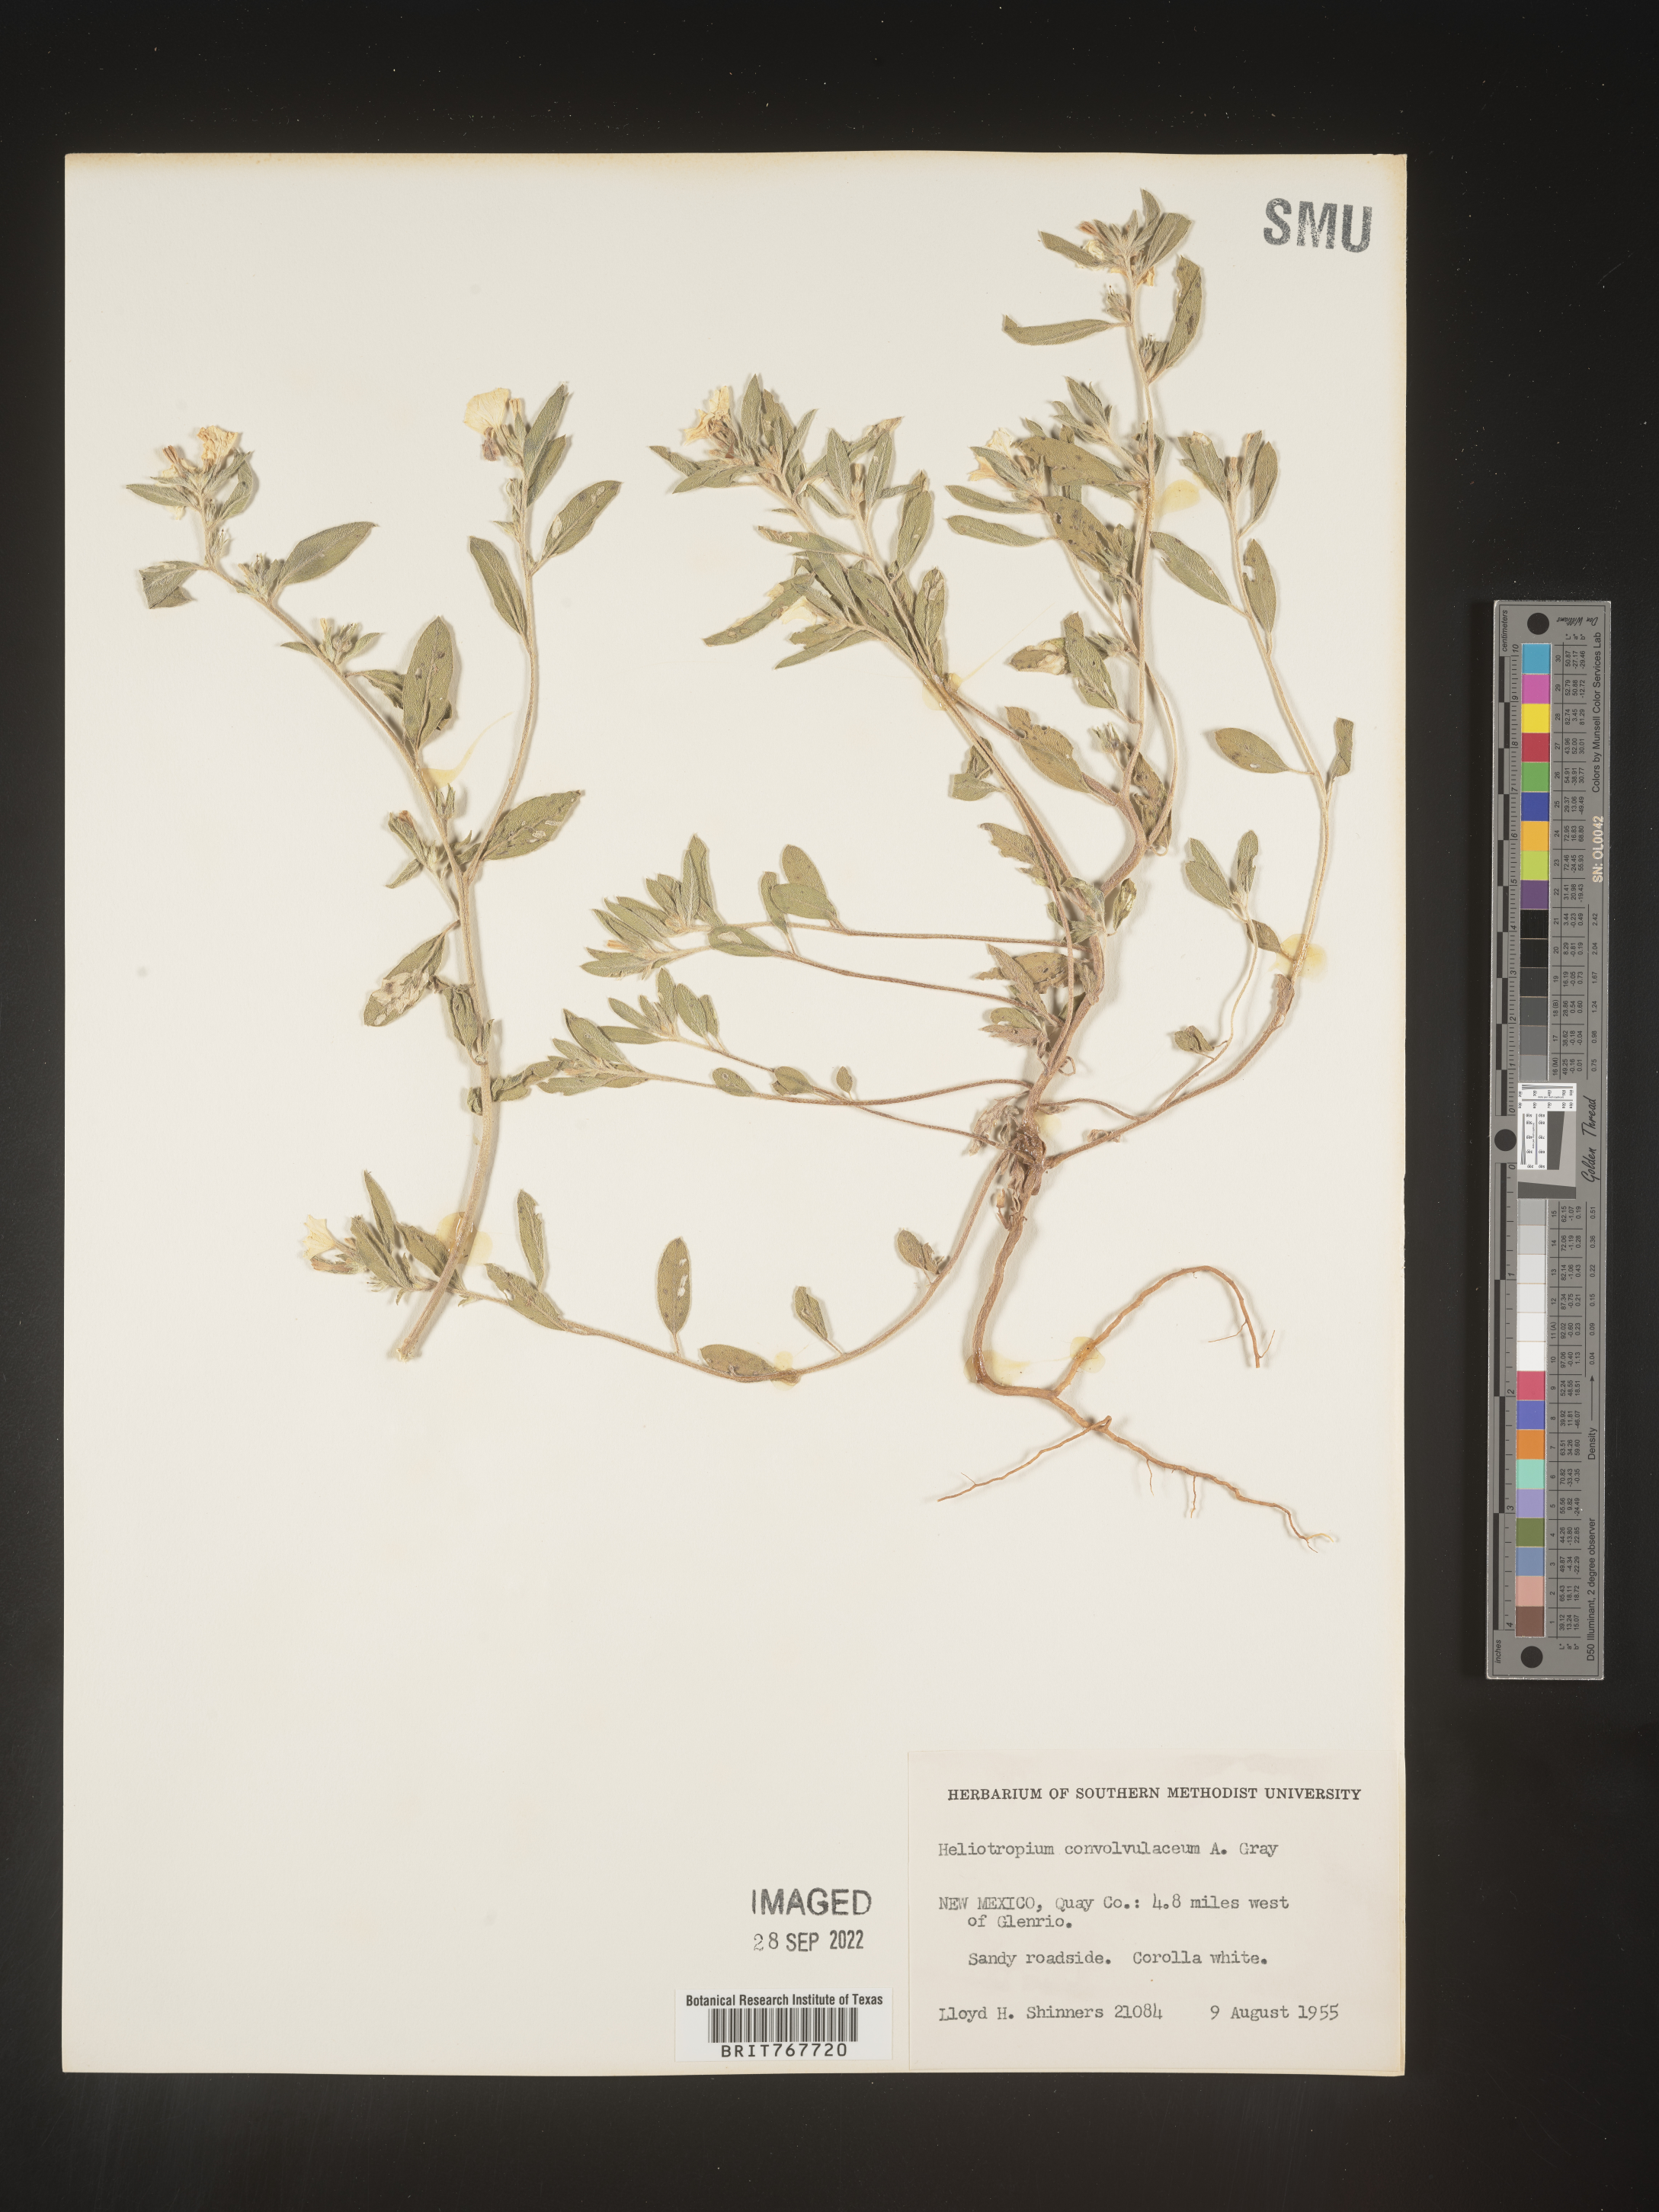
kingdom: Plantae
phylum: Tracheophyta
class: Magnoliopsida
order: Boraginales
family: Heliotropiaceae
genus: Heliotropium
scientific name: Heliotropium
